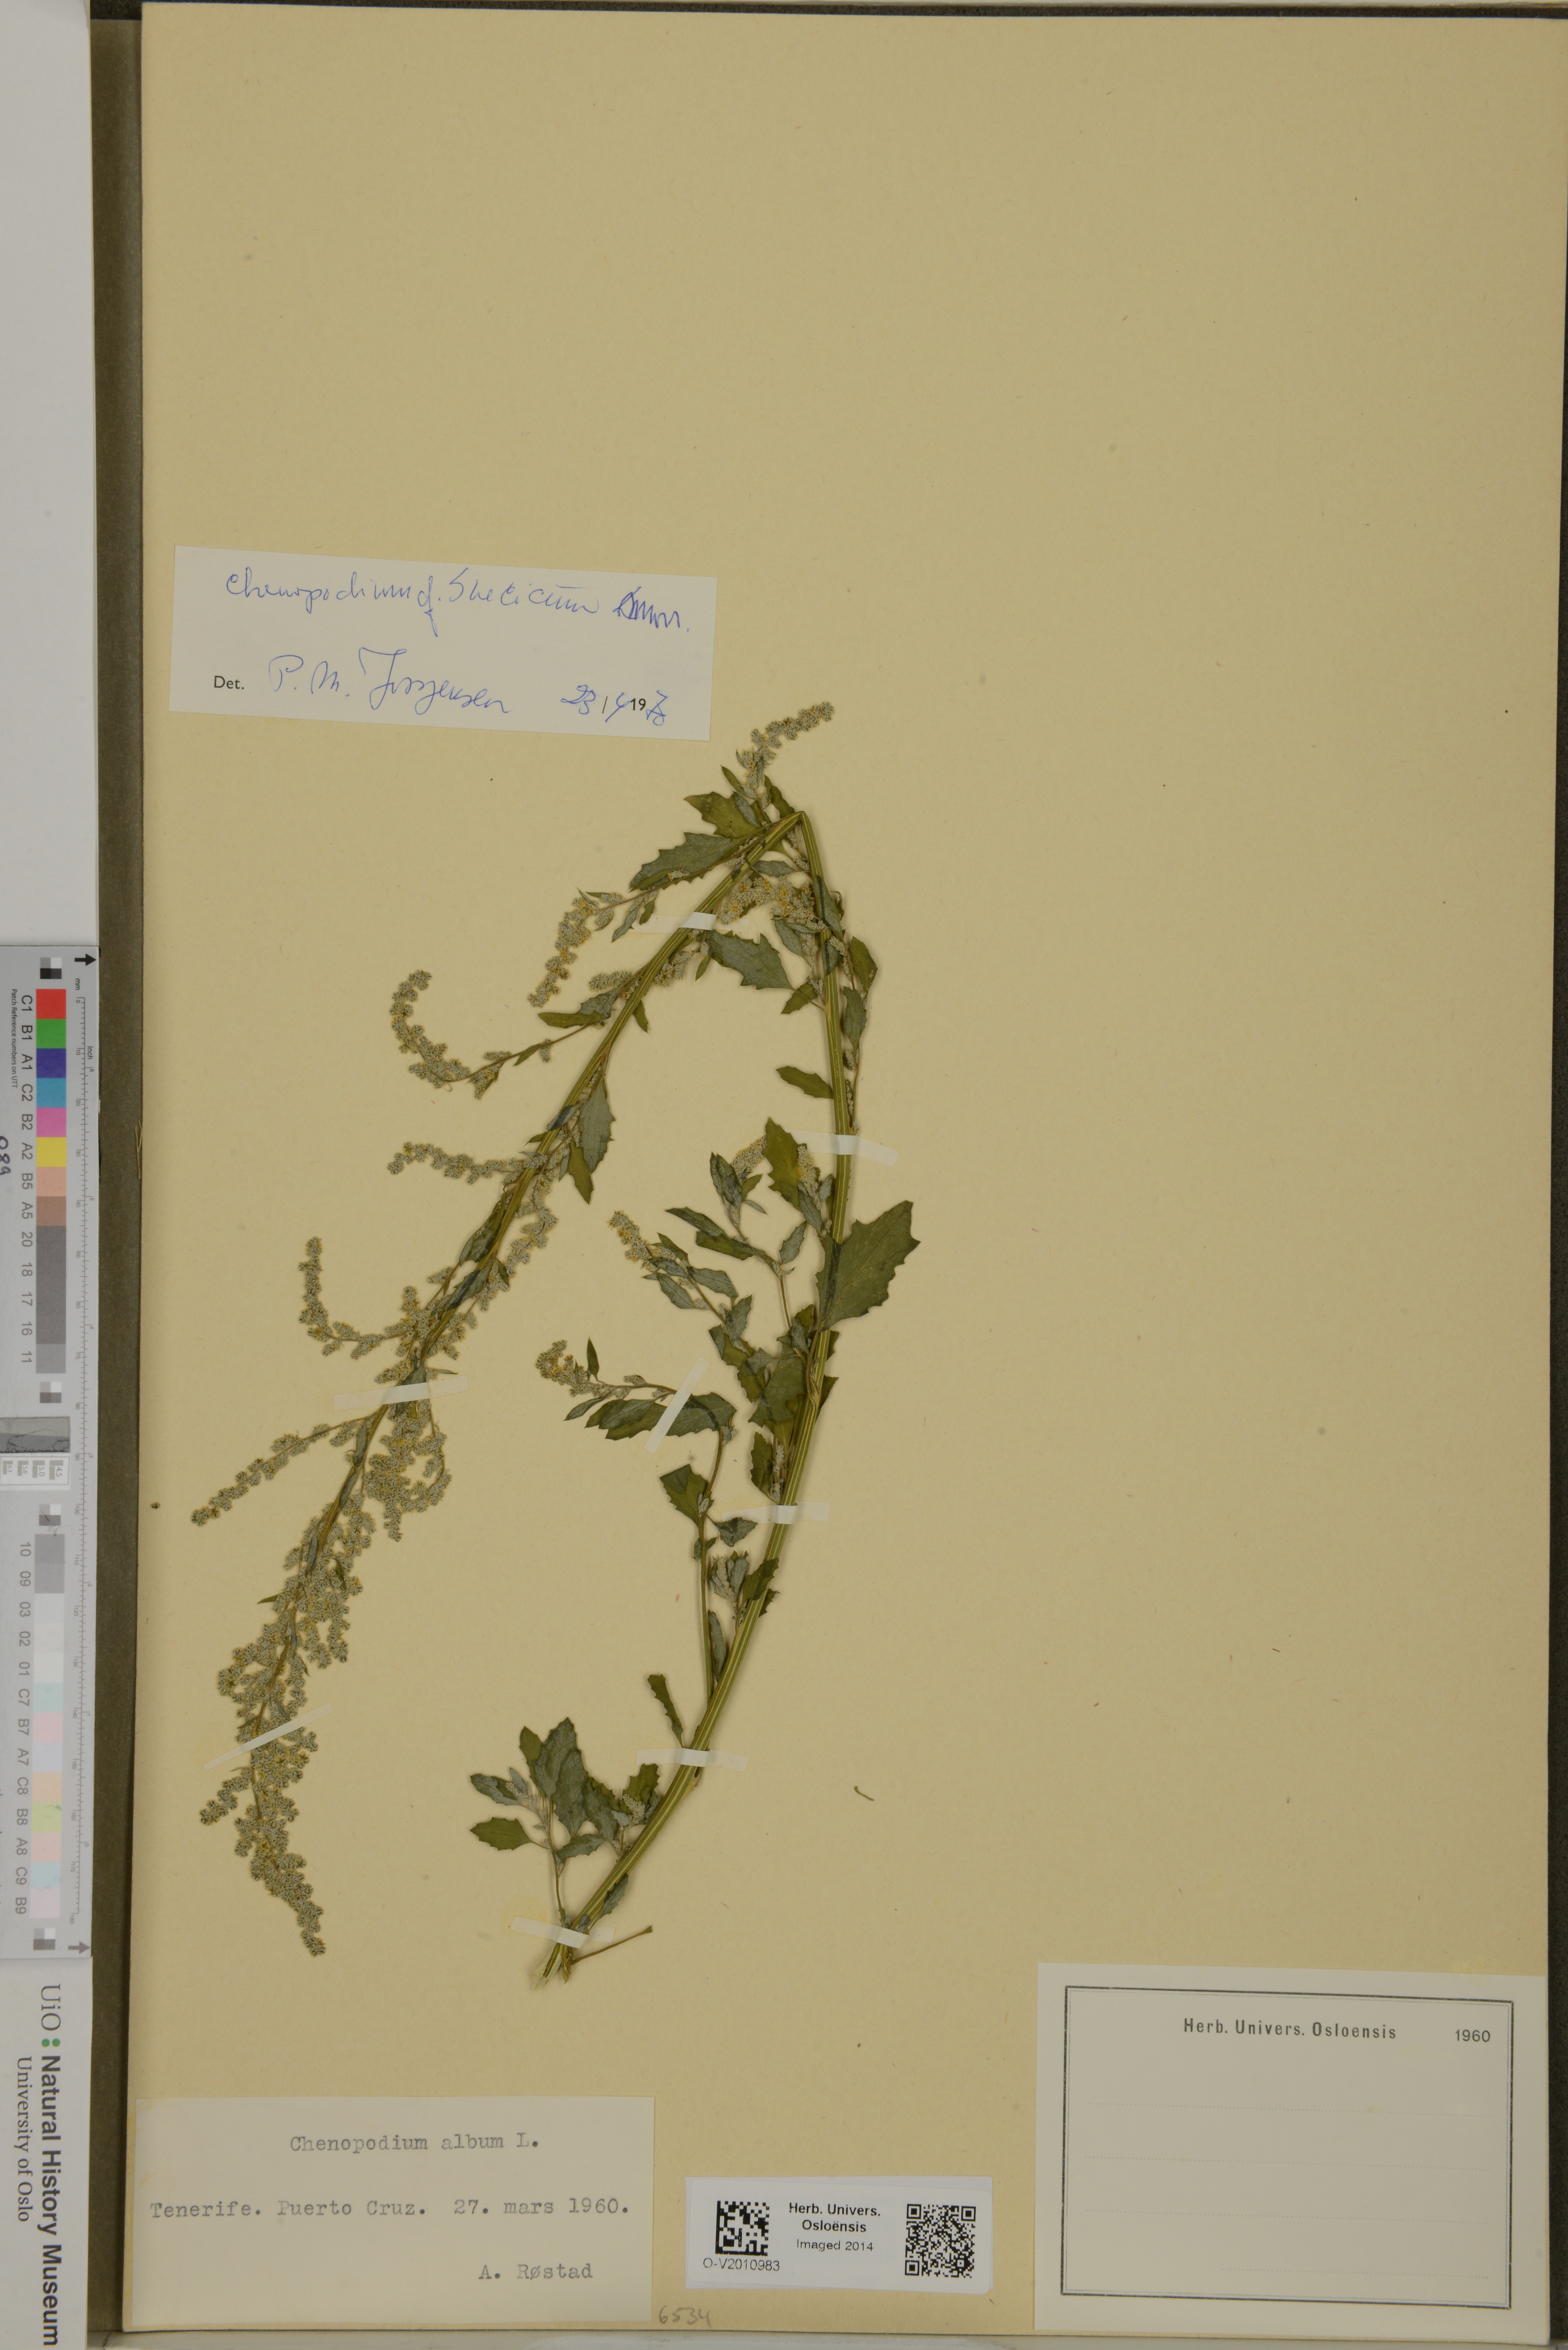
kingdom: Plantae
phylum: Tracheophyta
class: Magnoliopsida
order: Caryophyllales
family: Amaranthaceae
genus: Chenopodium
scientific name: Chenopodium suecicum
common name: Swedish goosefoot
